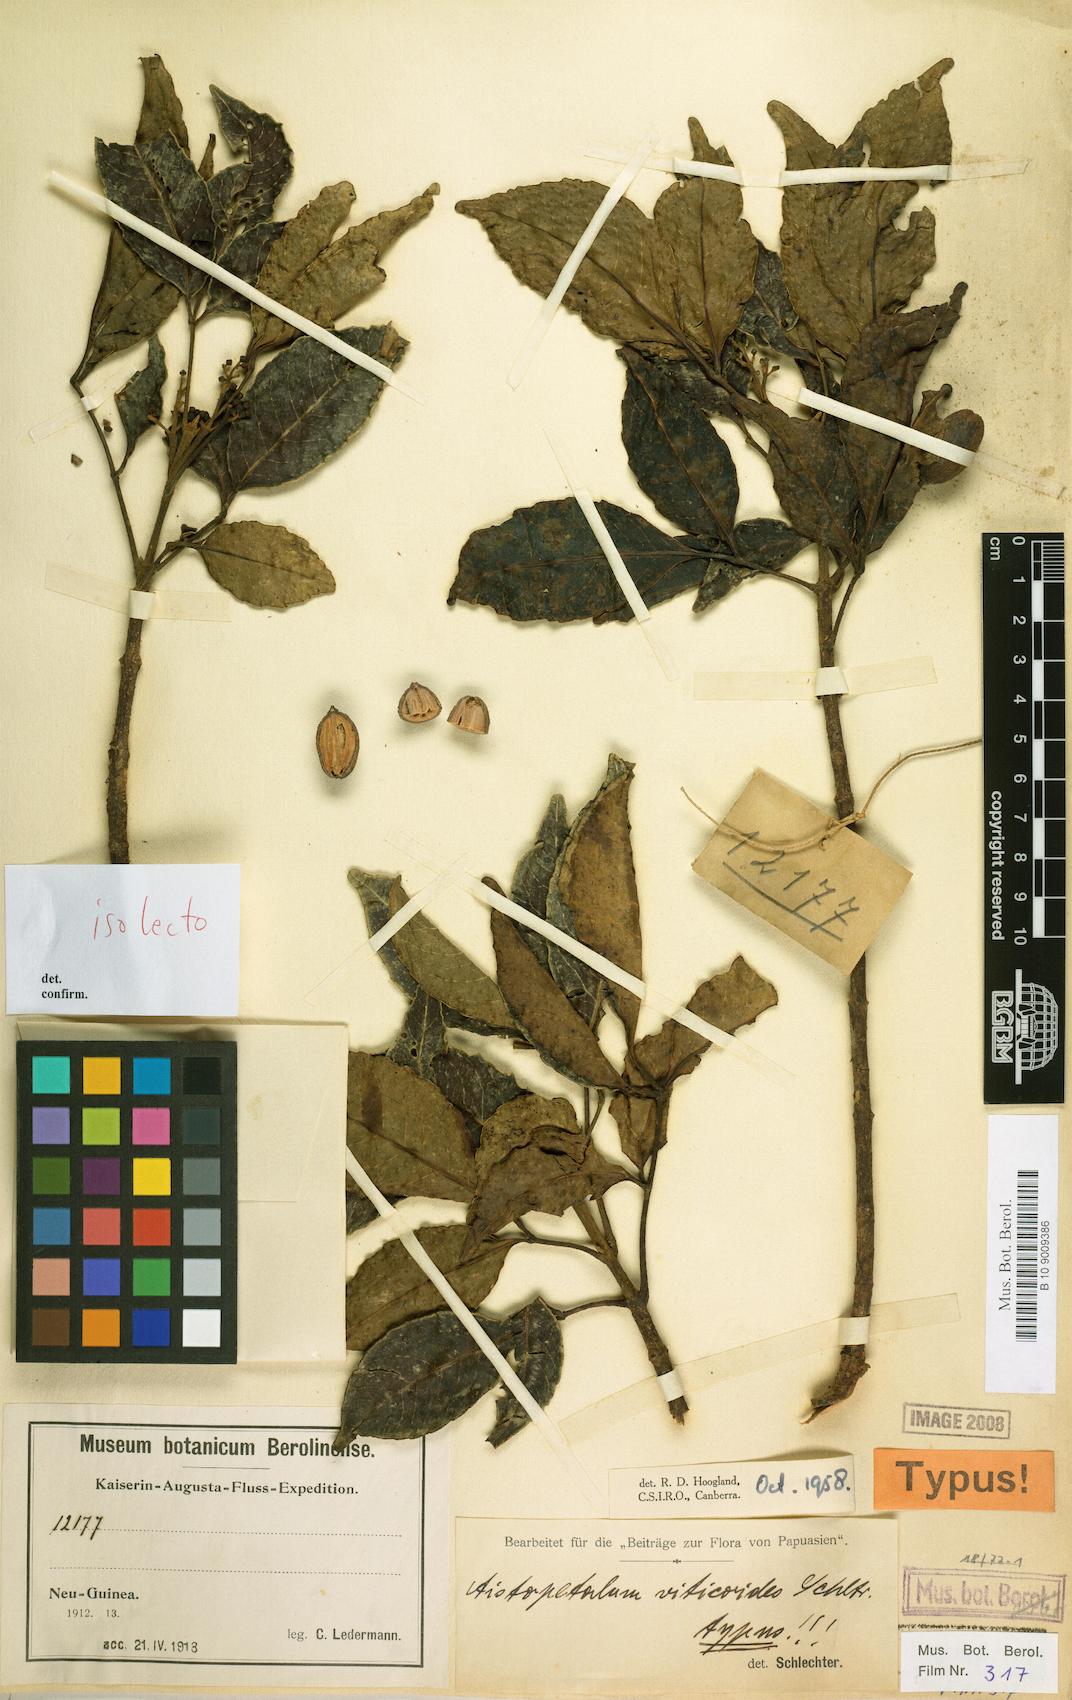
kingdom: Plantae
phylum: Tracheophyta
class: Magnoliopsida
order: Oxalidales
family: Cunoniaceae
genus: Aistopetalum
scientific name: Aistopetalum viticoides
